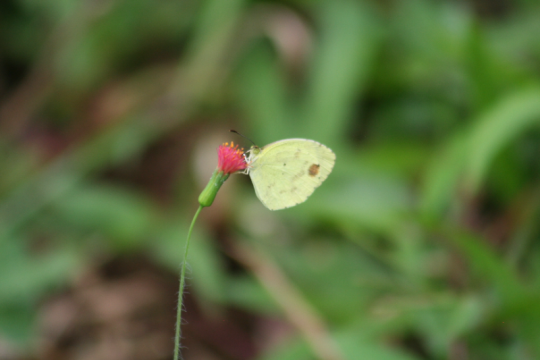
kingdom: Animalia
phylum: Arthropoda
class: Insecta
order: Lepidoptera
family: Pieridae
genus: Pyrisitia
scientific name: Pyrisitia nise
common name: Mimosa Yellow
